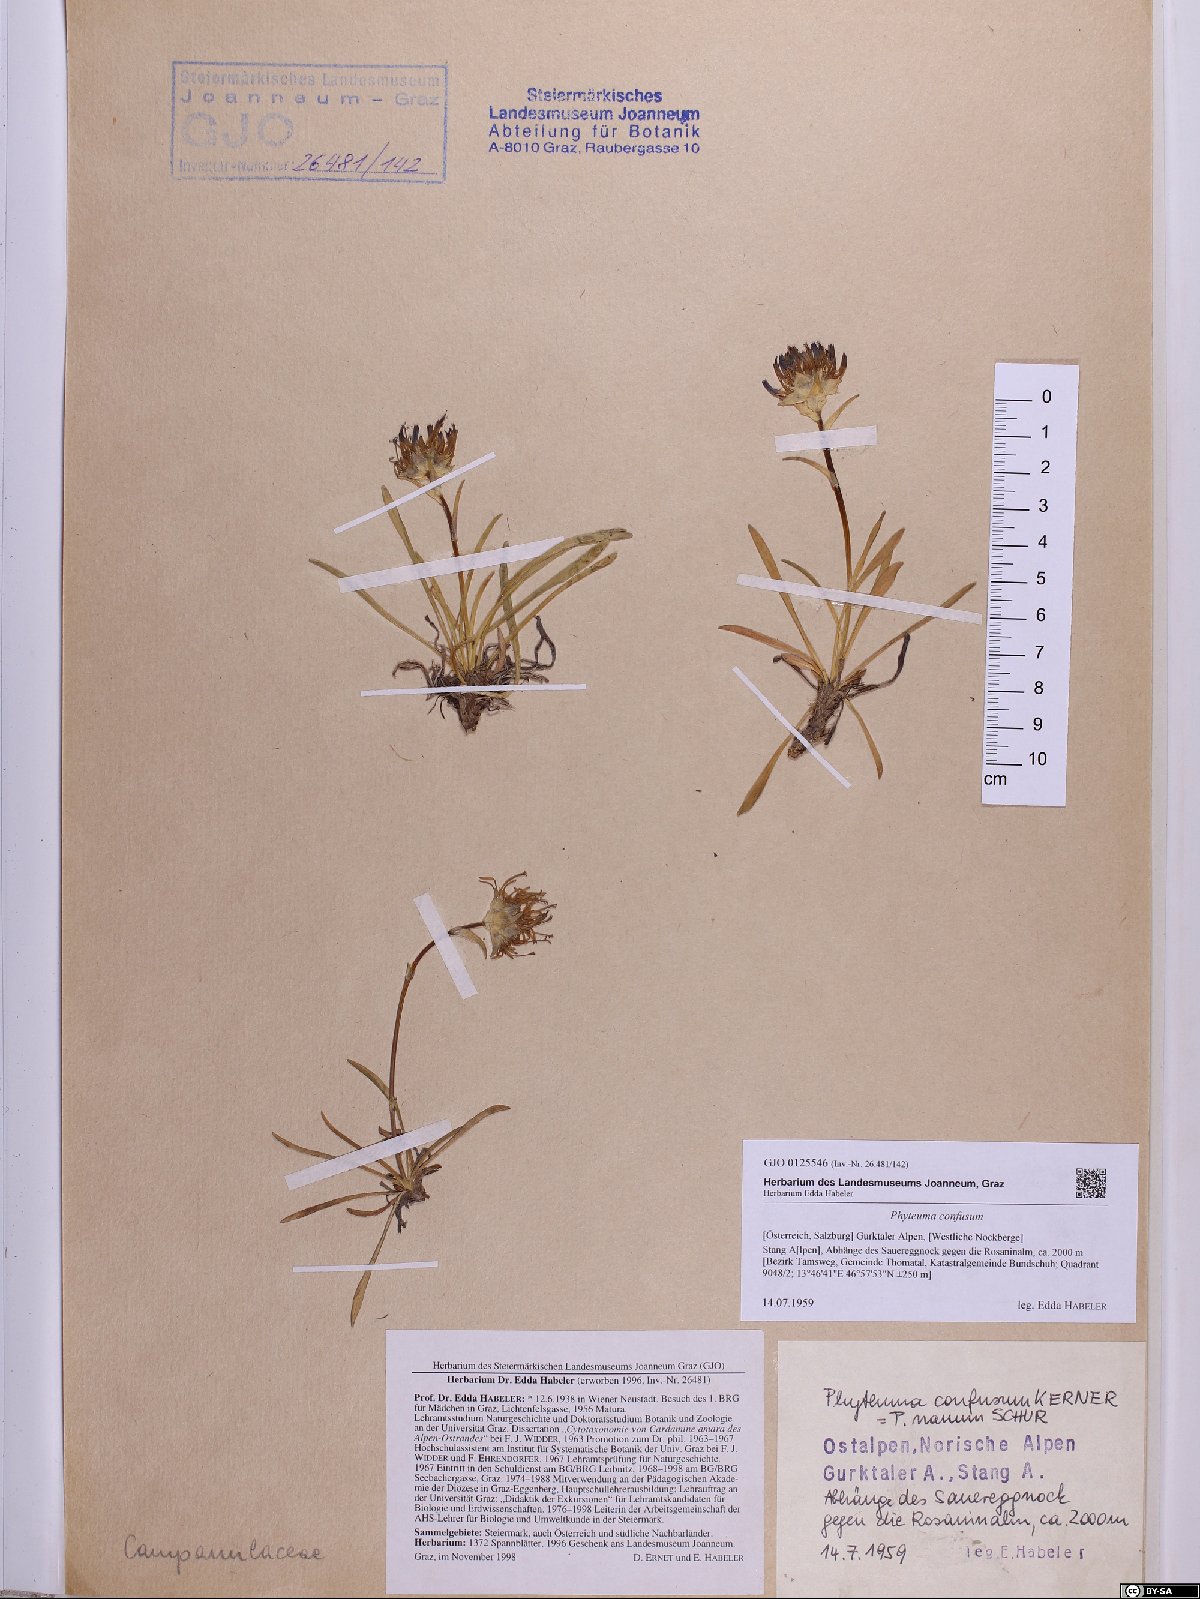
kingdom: Plantae
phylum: Tracheophyta
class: Magnoliopsida
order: Asterales
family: Campanulaceae
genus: Phyteuma
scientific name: Phyteuma confusum
